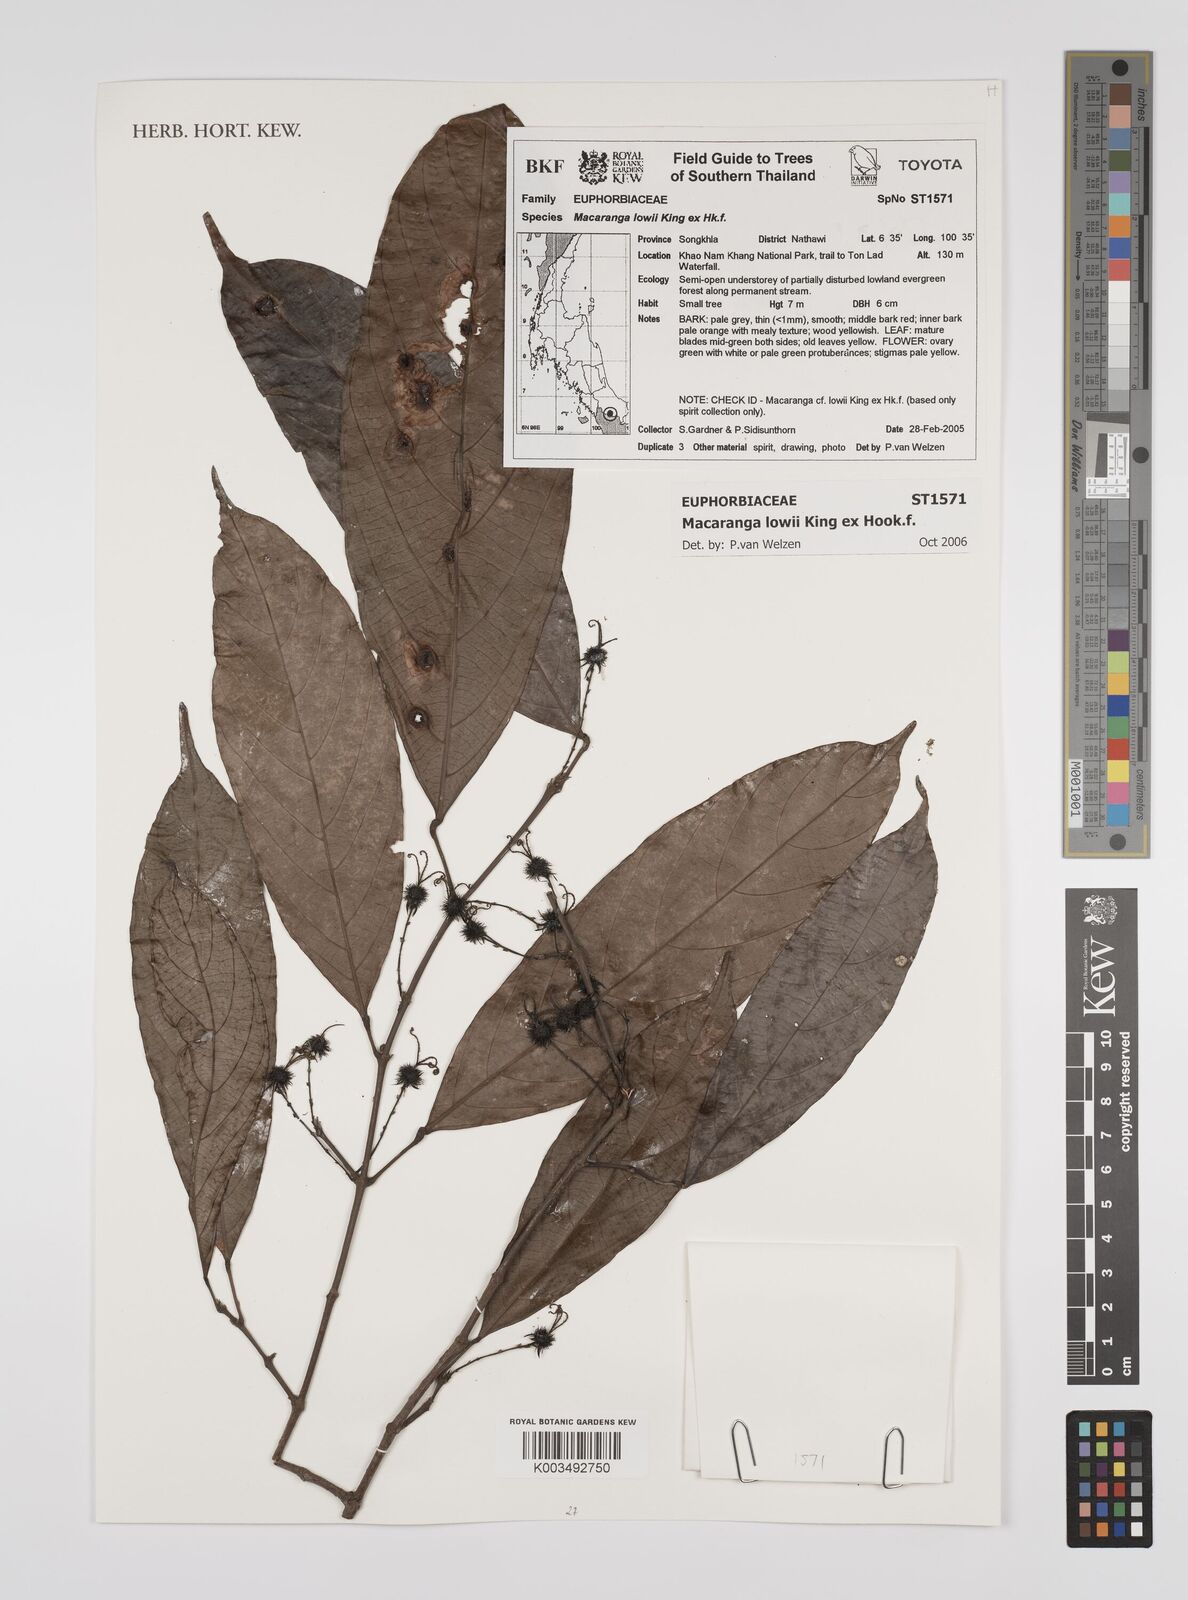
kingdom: Plantae
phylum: Tracheophyta
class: Magnoliopsida
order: Malpighiales
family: Euphorbiaceae
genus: Macaranga
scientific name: Macaranga lowii
